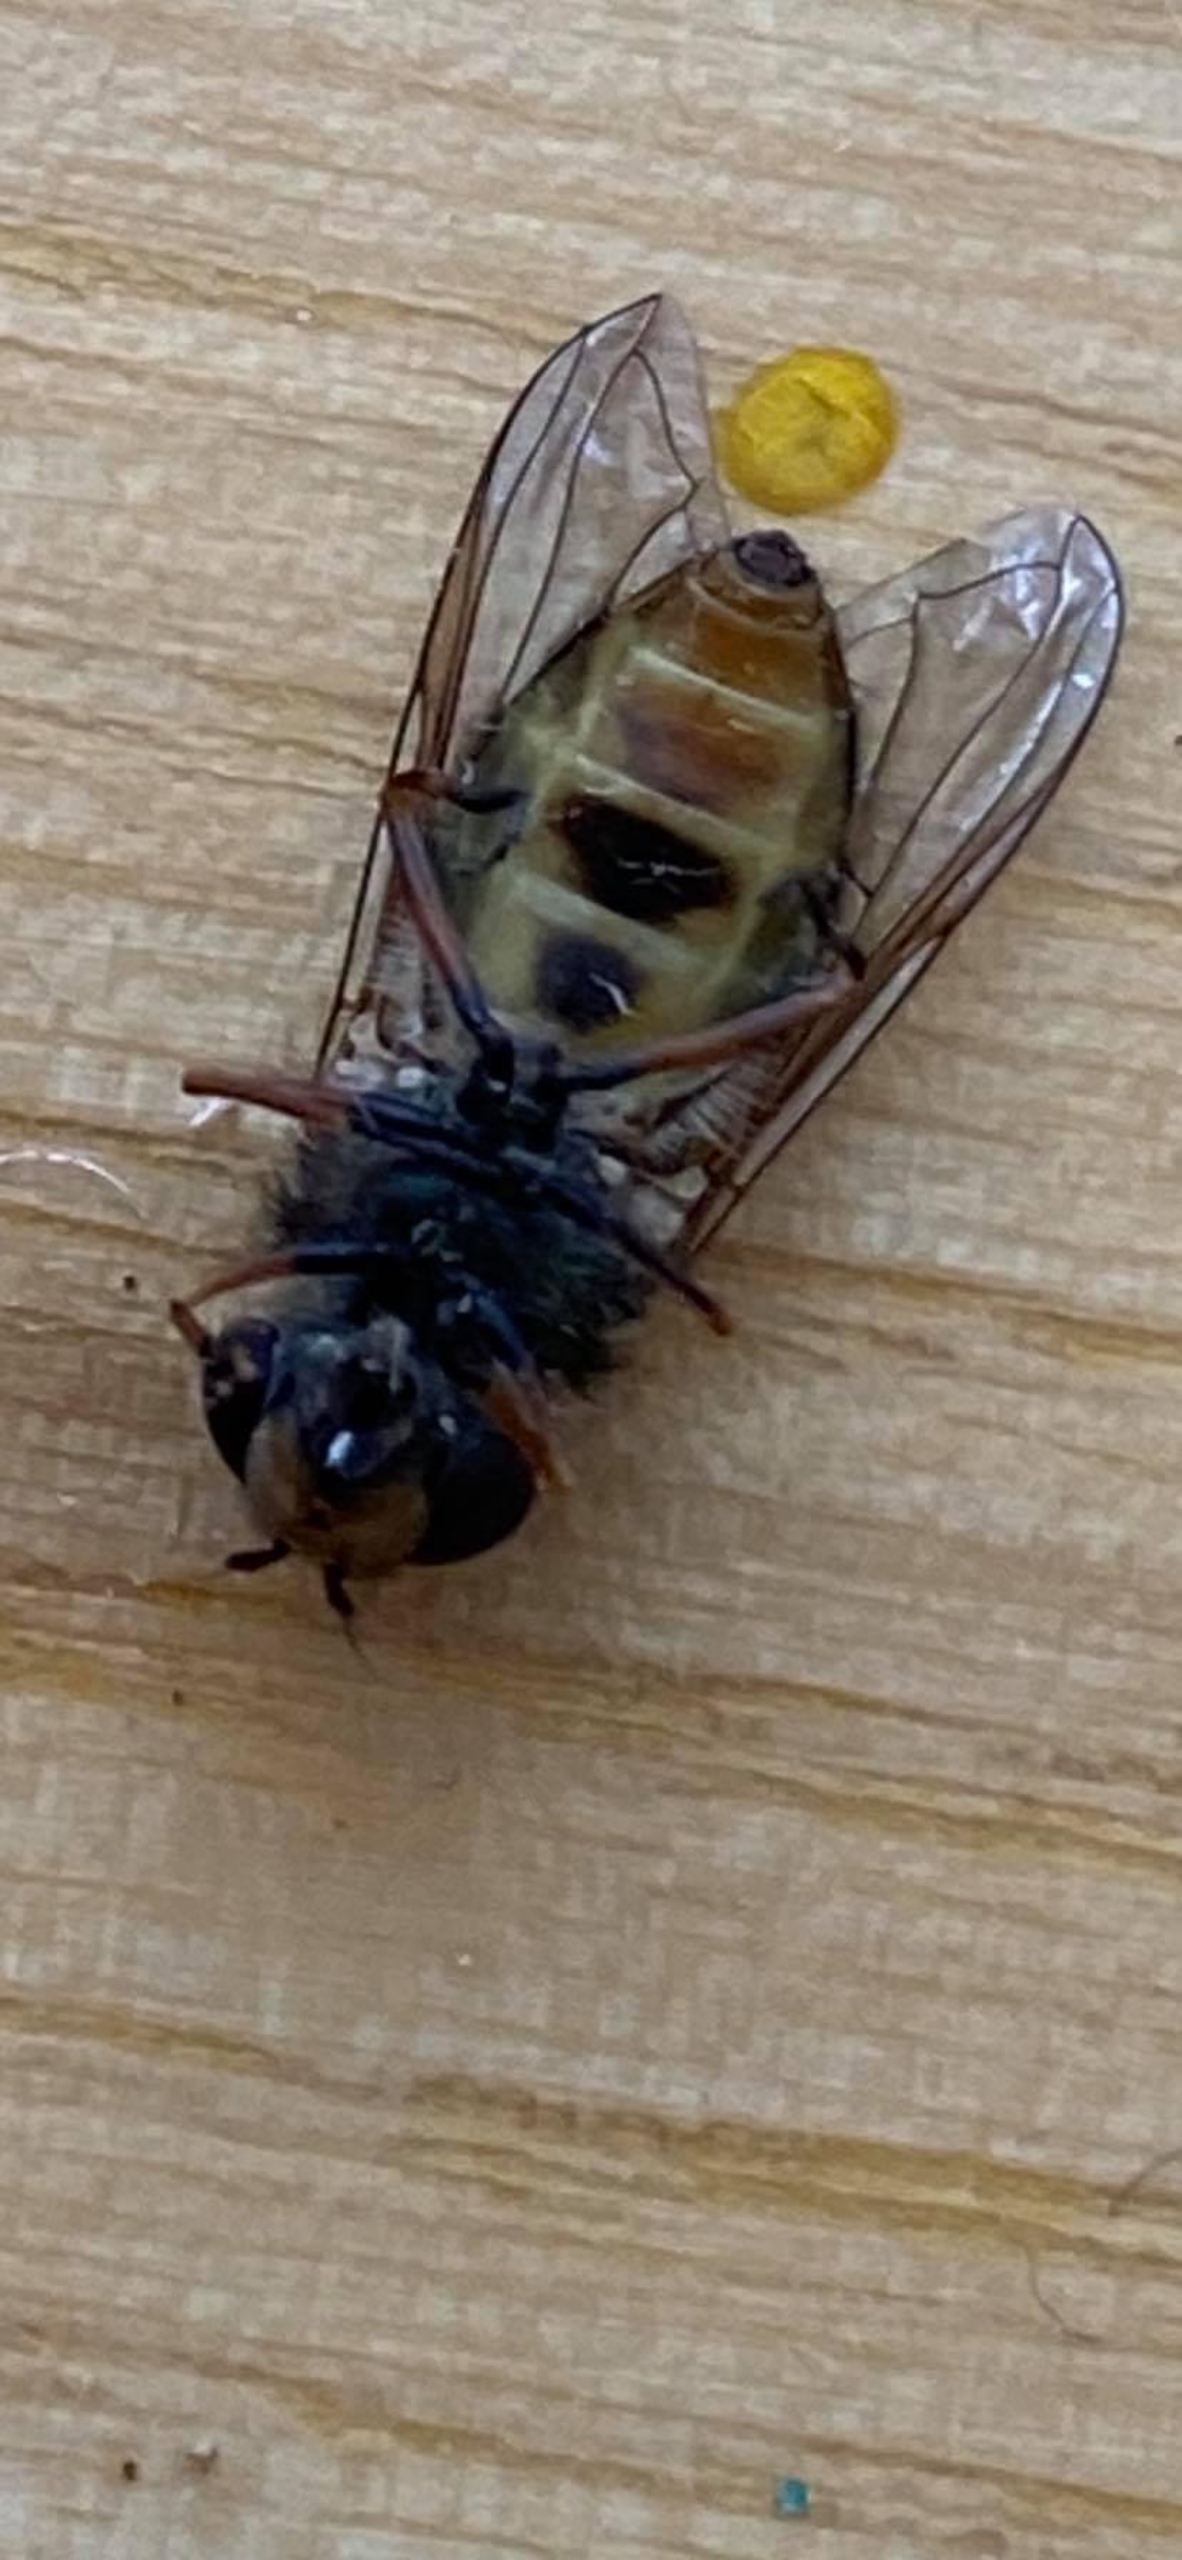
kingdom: Animalia
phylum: Arthropoda
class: Insecta
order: Diptera
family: Syrphidae
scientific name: Syrphidae
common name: Svirrefluer
